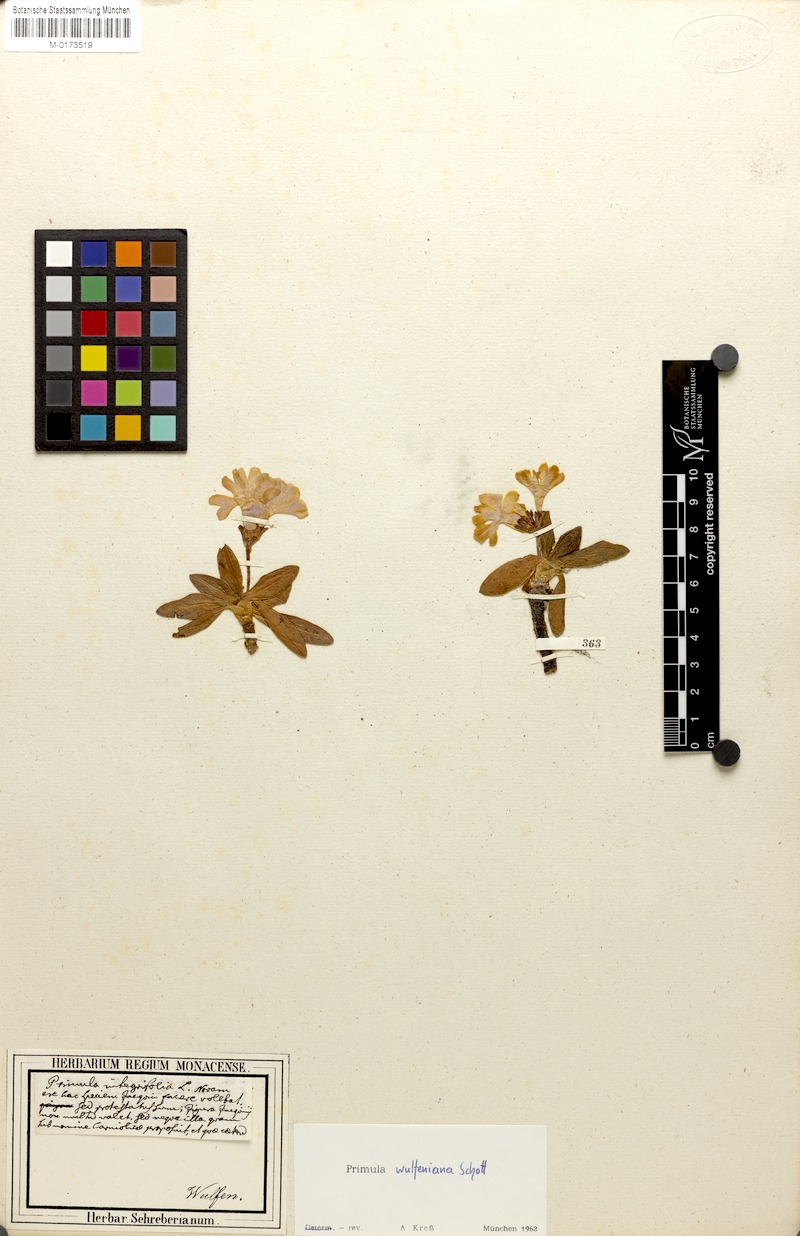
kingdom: Plantae
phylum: Tracheophyta
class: Magnoliopsida
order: Ericales
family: Primulaceae
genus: Primula
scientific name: Primula wulfeniana
